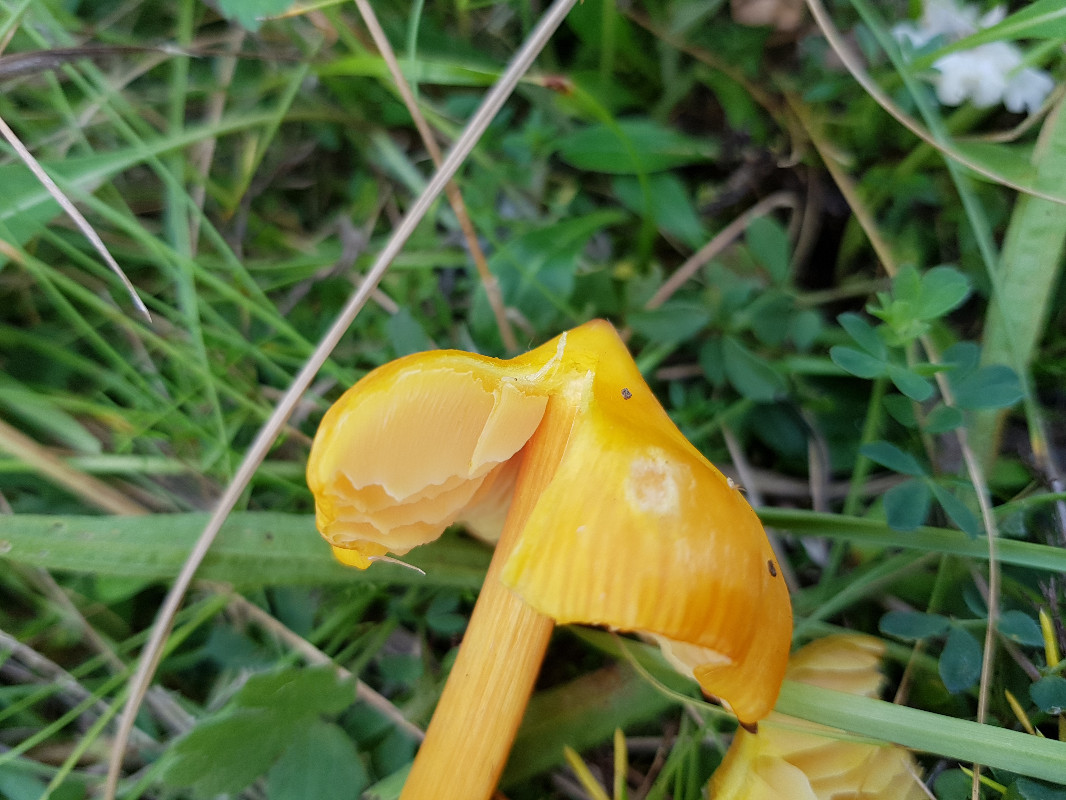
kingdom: Fungi
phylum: Basidiomycota
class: Agaricomycetes
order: Agaricales
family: Hygrophoraceae
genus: Hygrocybe
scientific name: Hygrocybe
